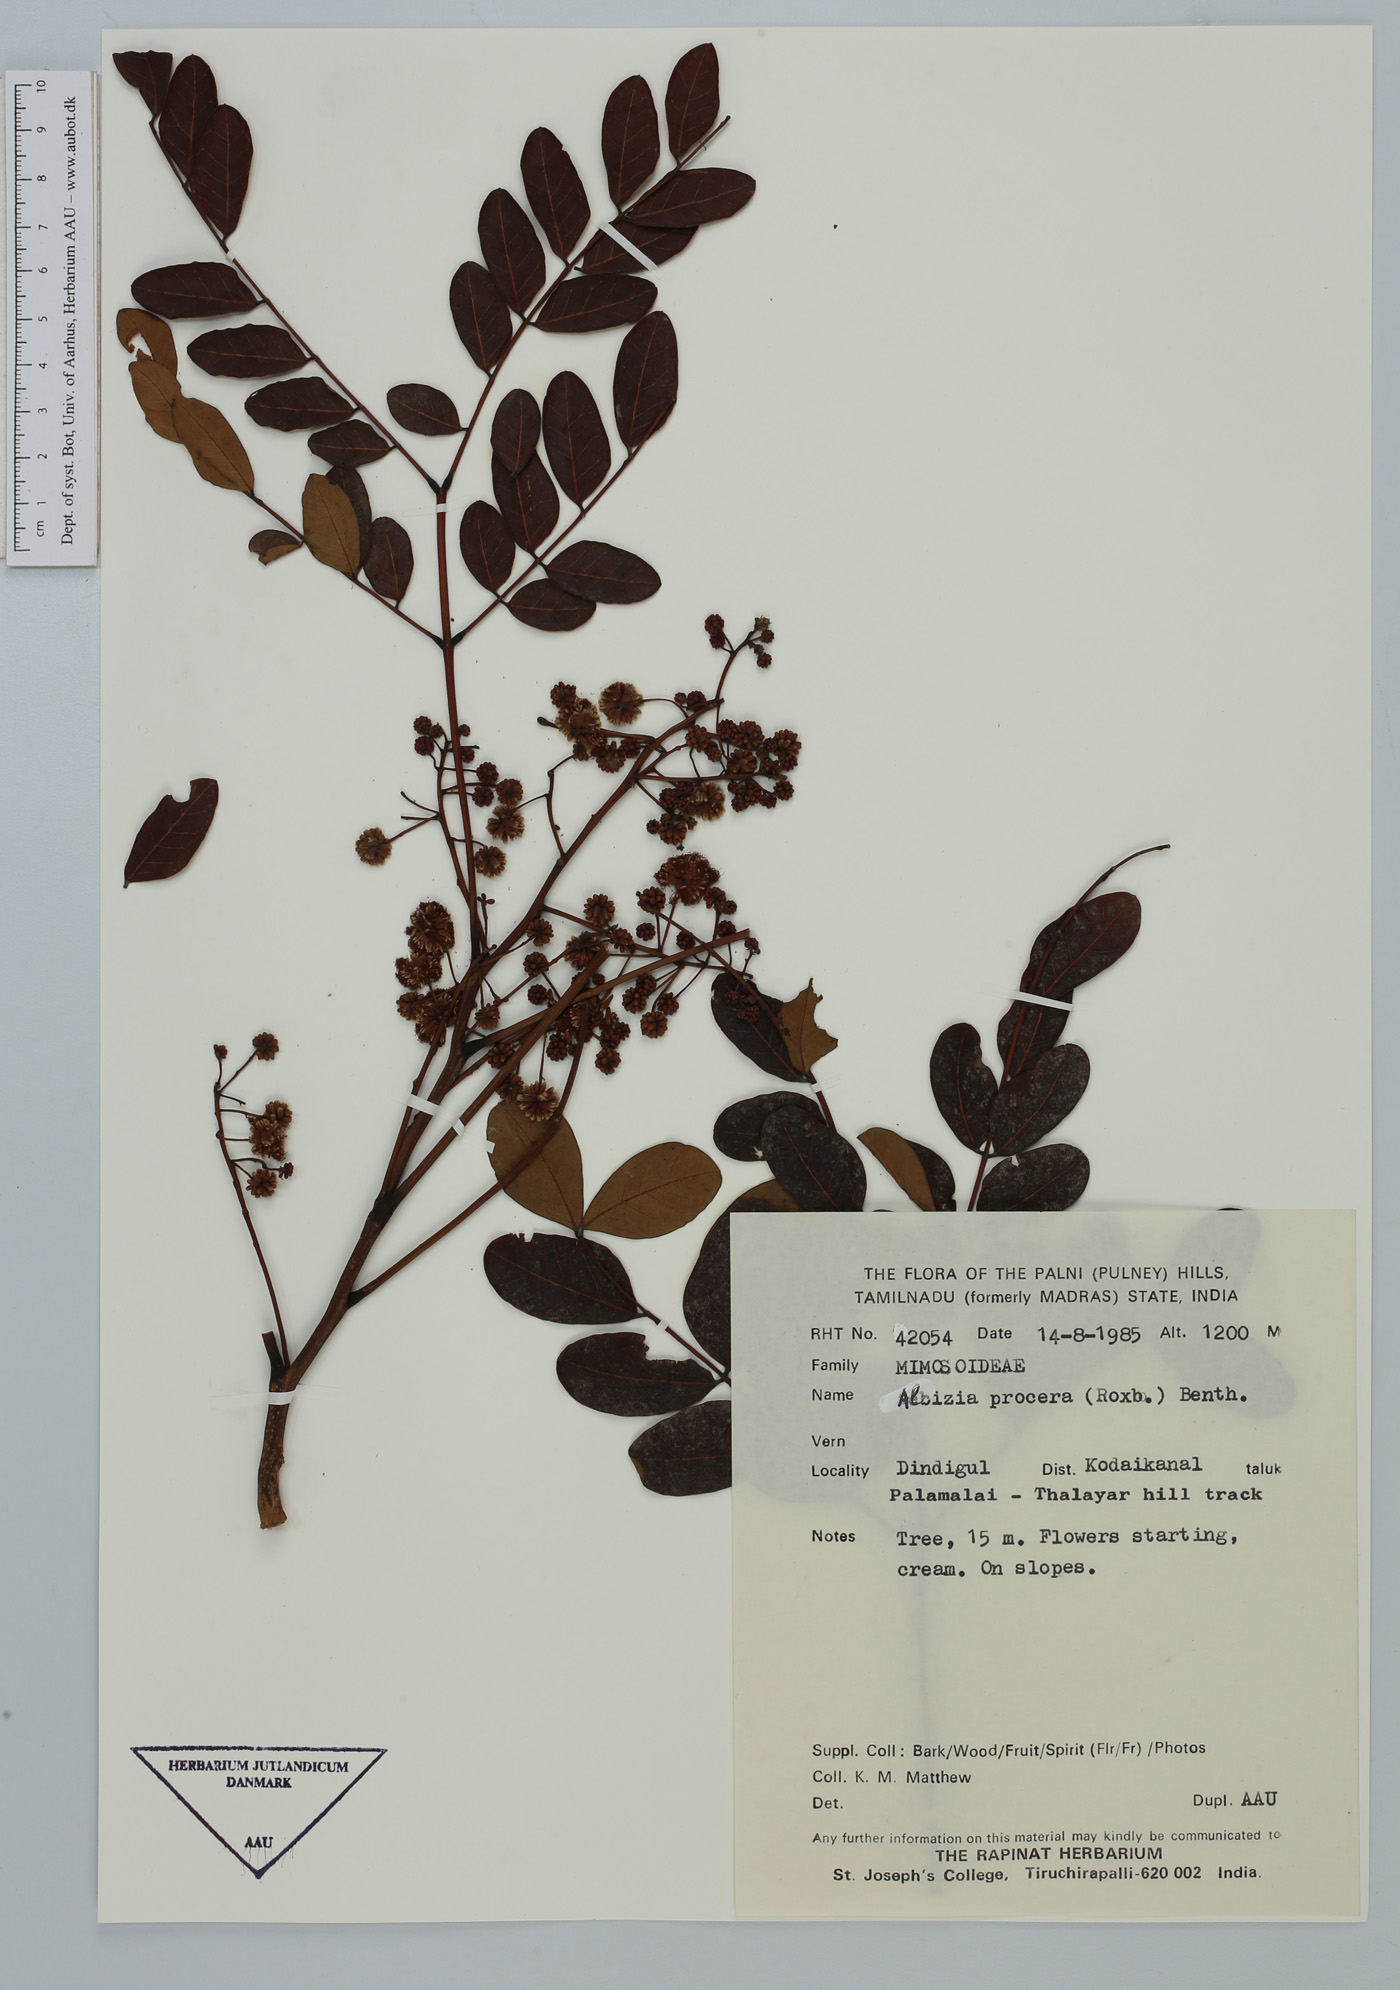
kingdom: Plantae
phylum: Tracheophyta
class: Magnoliopsida
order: Fabales
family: Fabaceae
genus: Albizia
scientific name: Albizia procera
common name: Tall albizia
